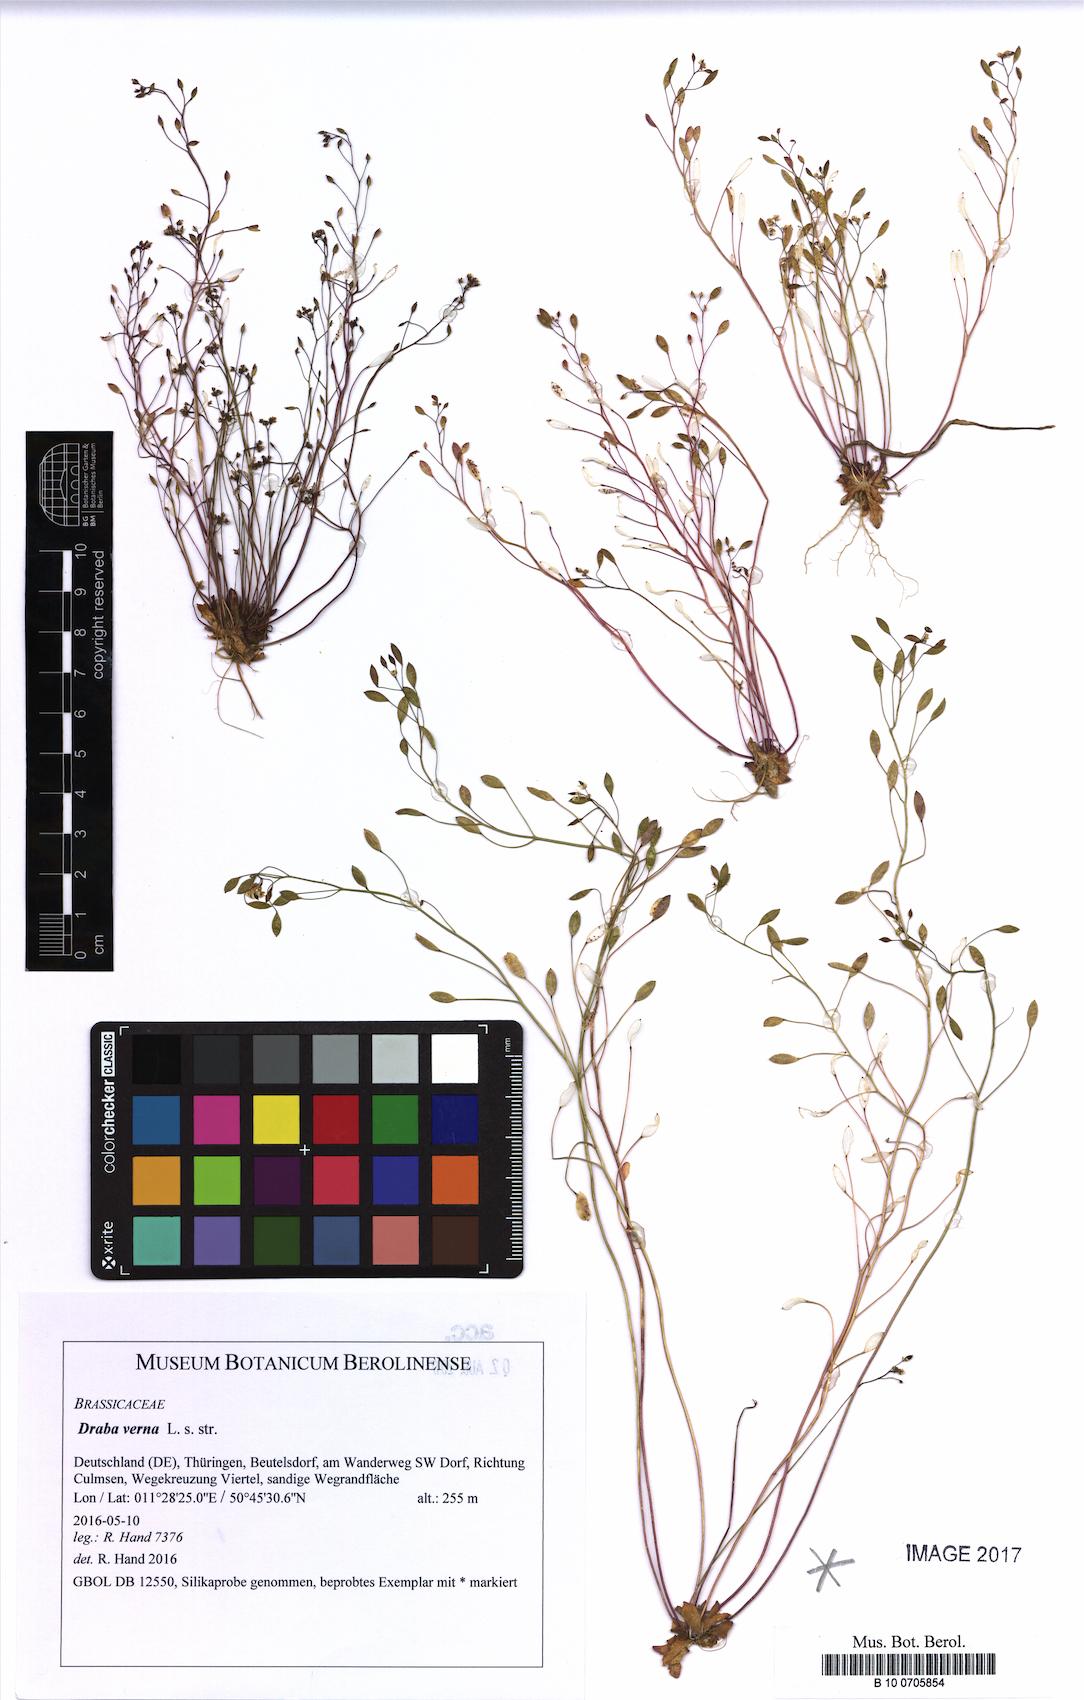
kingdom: Plantae
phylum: Tracheophyta
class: Magnoliopsida
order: Brassicales
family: Brassicaceae
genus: Draba
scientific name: Draba verna
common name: Spring draba
